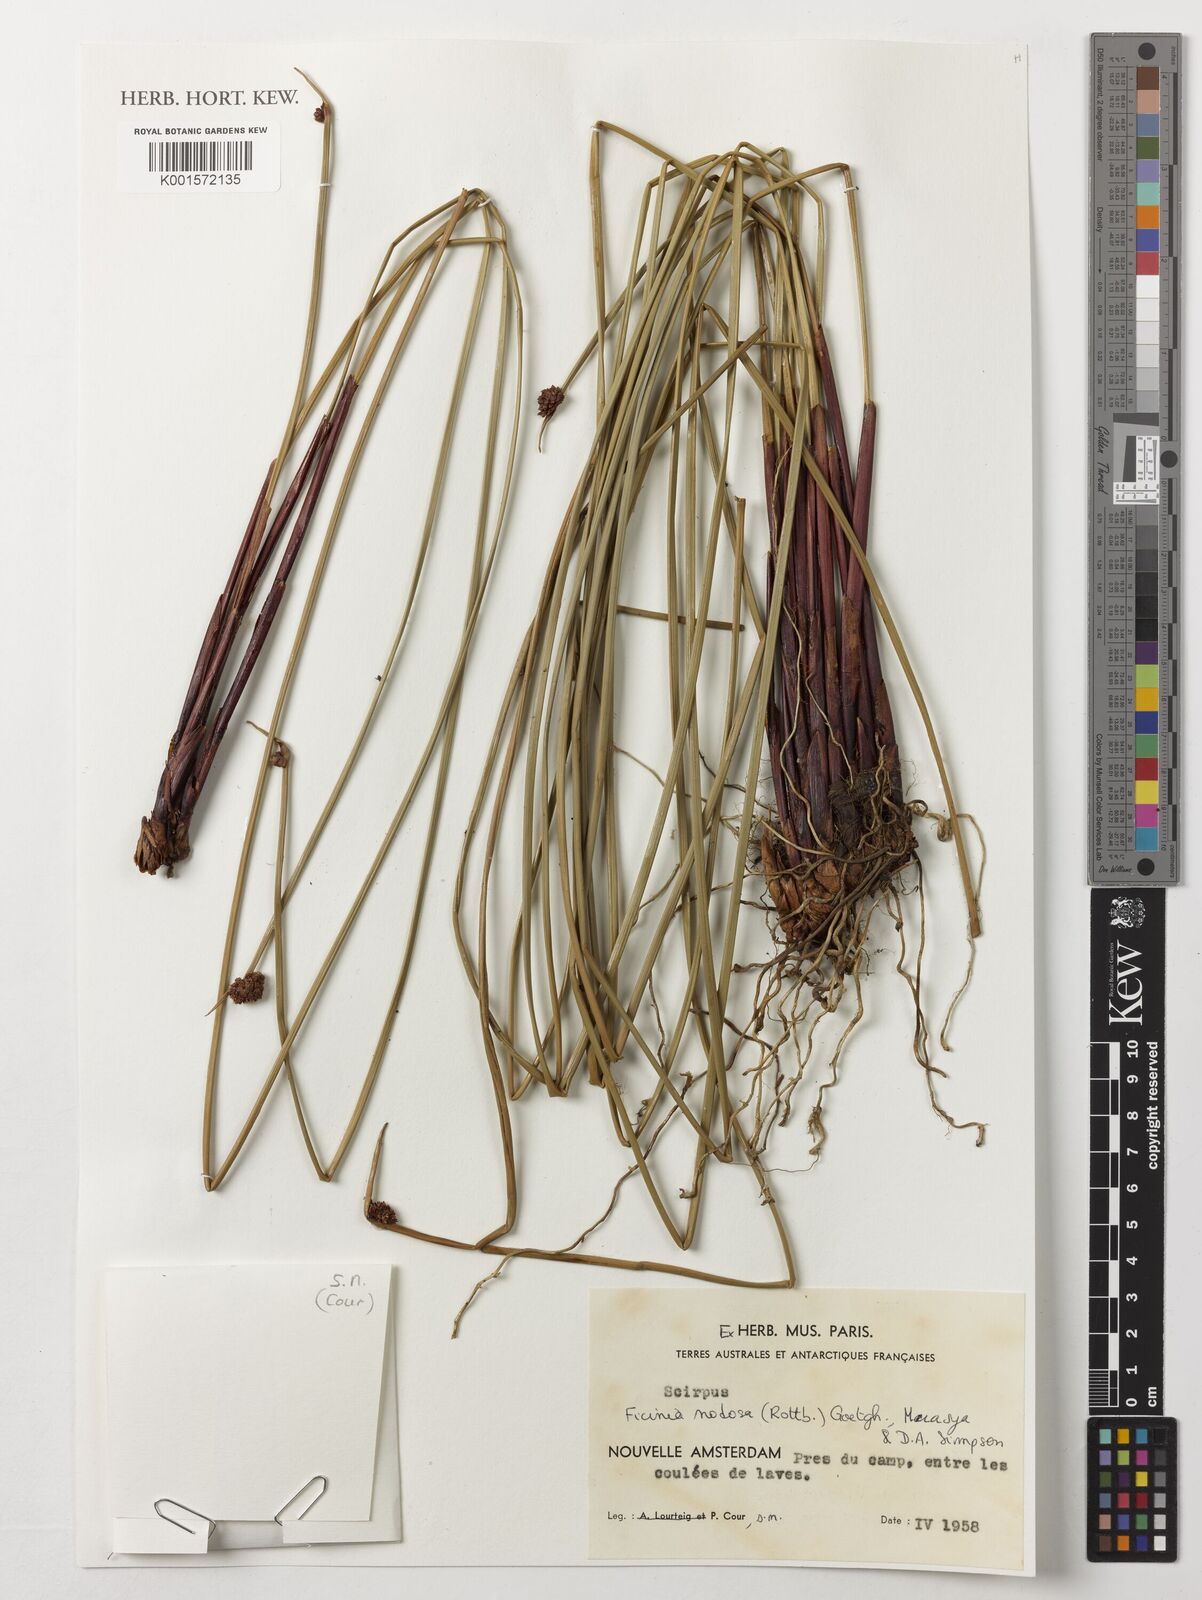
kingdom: Plantae
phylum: Tracheophyta
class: Liliopsida
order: Poales
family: Cyperaceae
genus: Ficinia
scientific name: Ficinia nodosa
